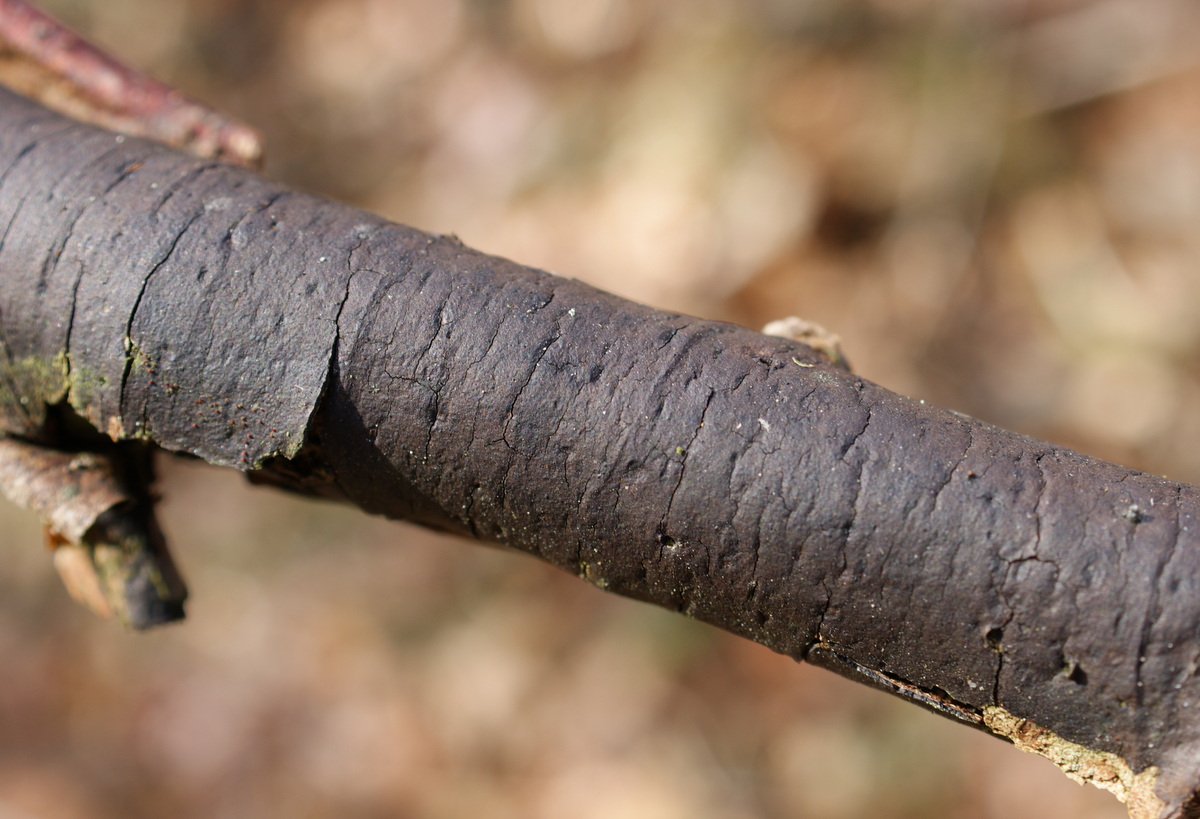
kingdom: Fungi
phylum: Ascomycota
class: Sordariomycetes
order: Xylariales
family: Diatrypaceae
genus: Diatrype
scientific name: Diatrype decorticata
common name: barksprænger-kulskorpe
